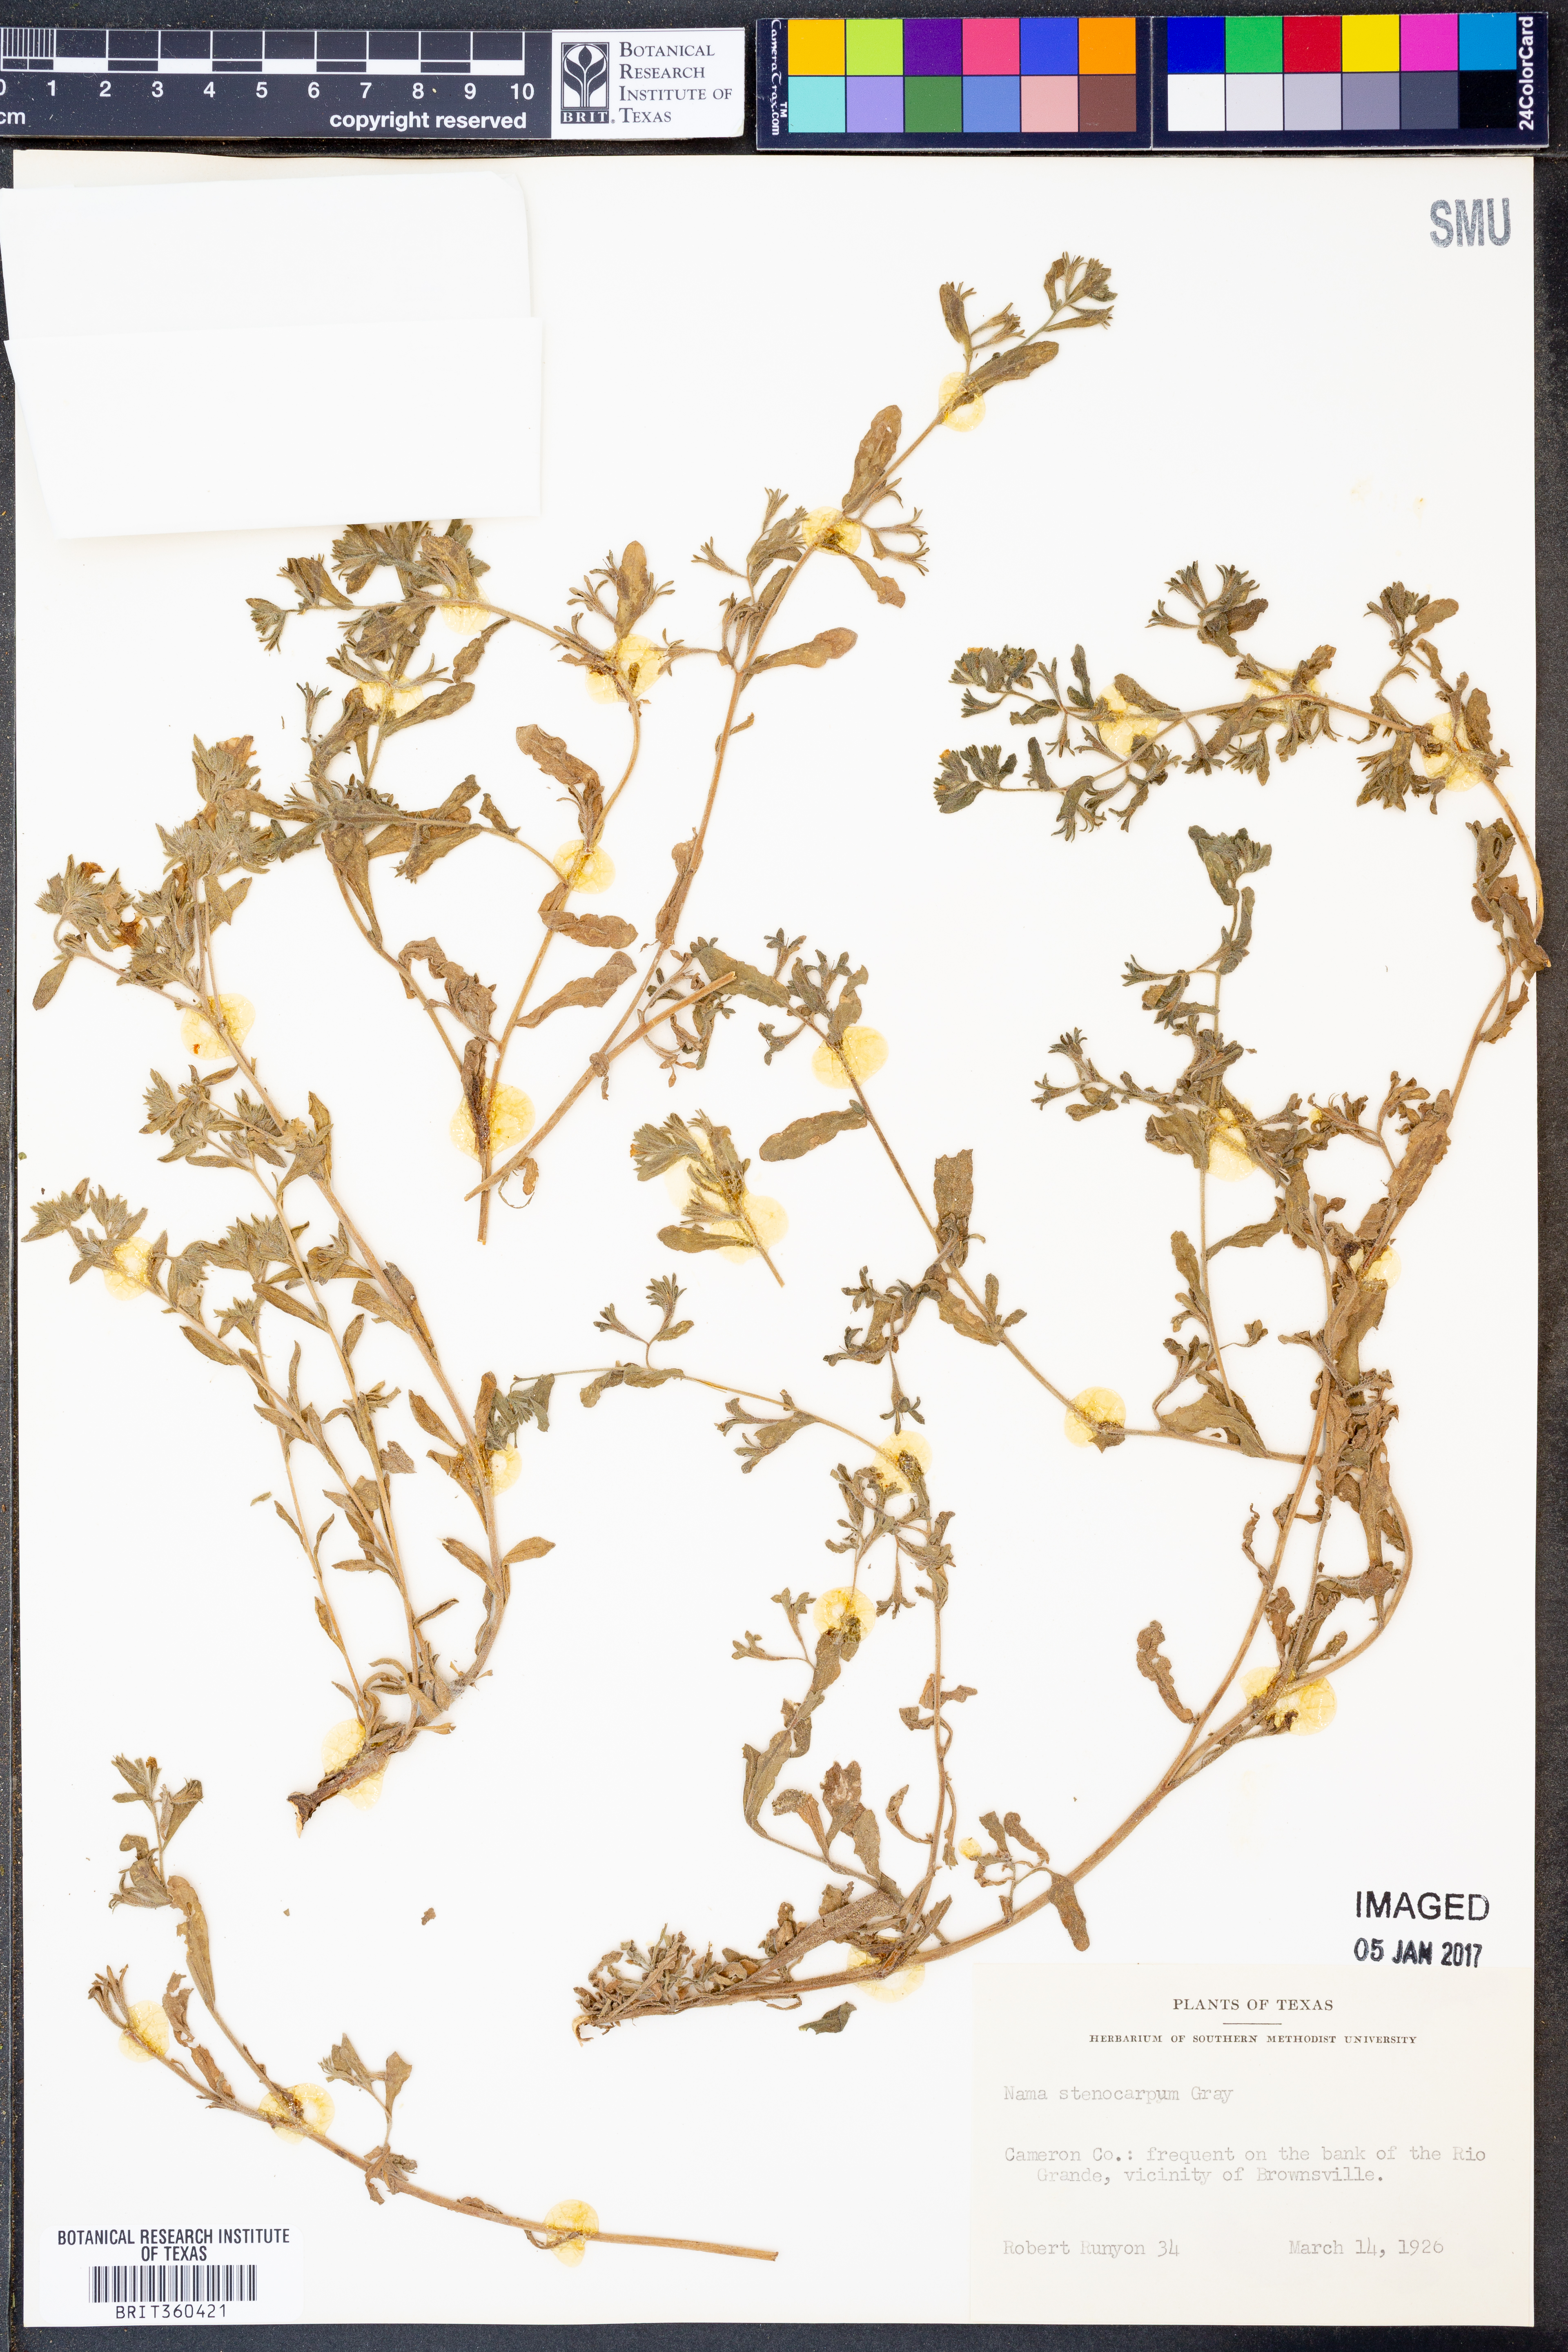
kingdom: Plantae
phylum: Tracheophyta
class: Magnoliopsida
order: Boraginales
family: Namaceae
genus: Nama
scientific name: Nama stenocarpa
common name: Mud fiddleleaf
